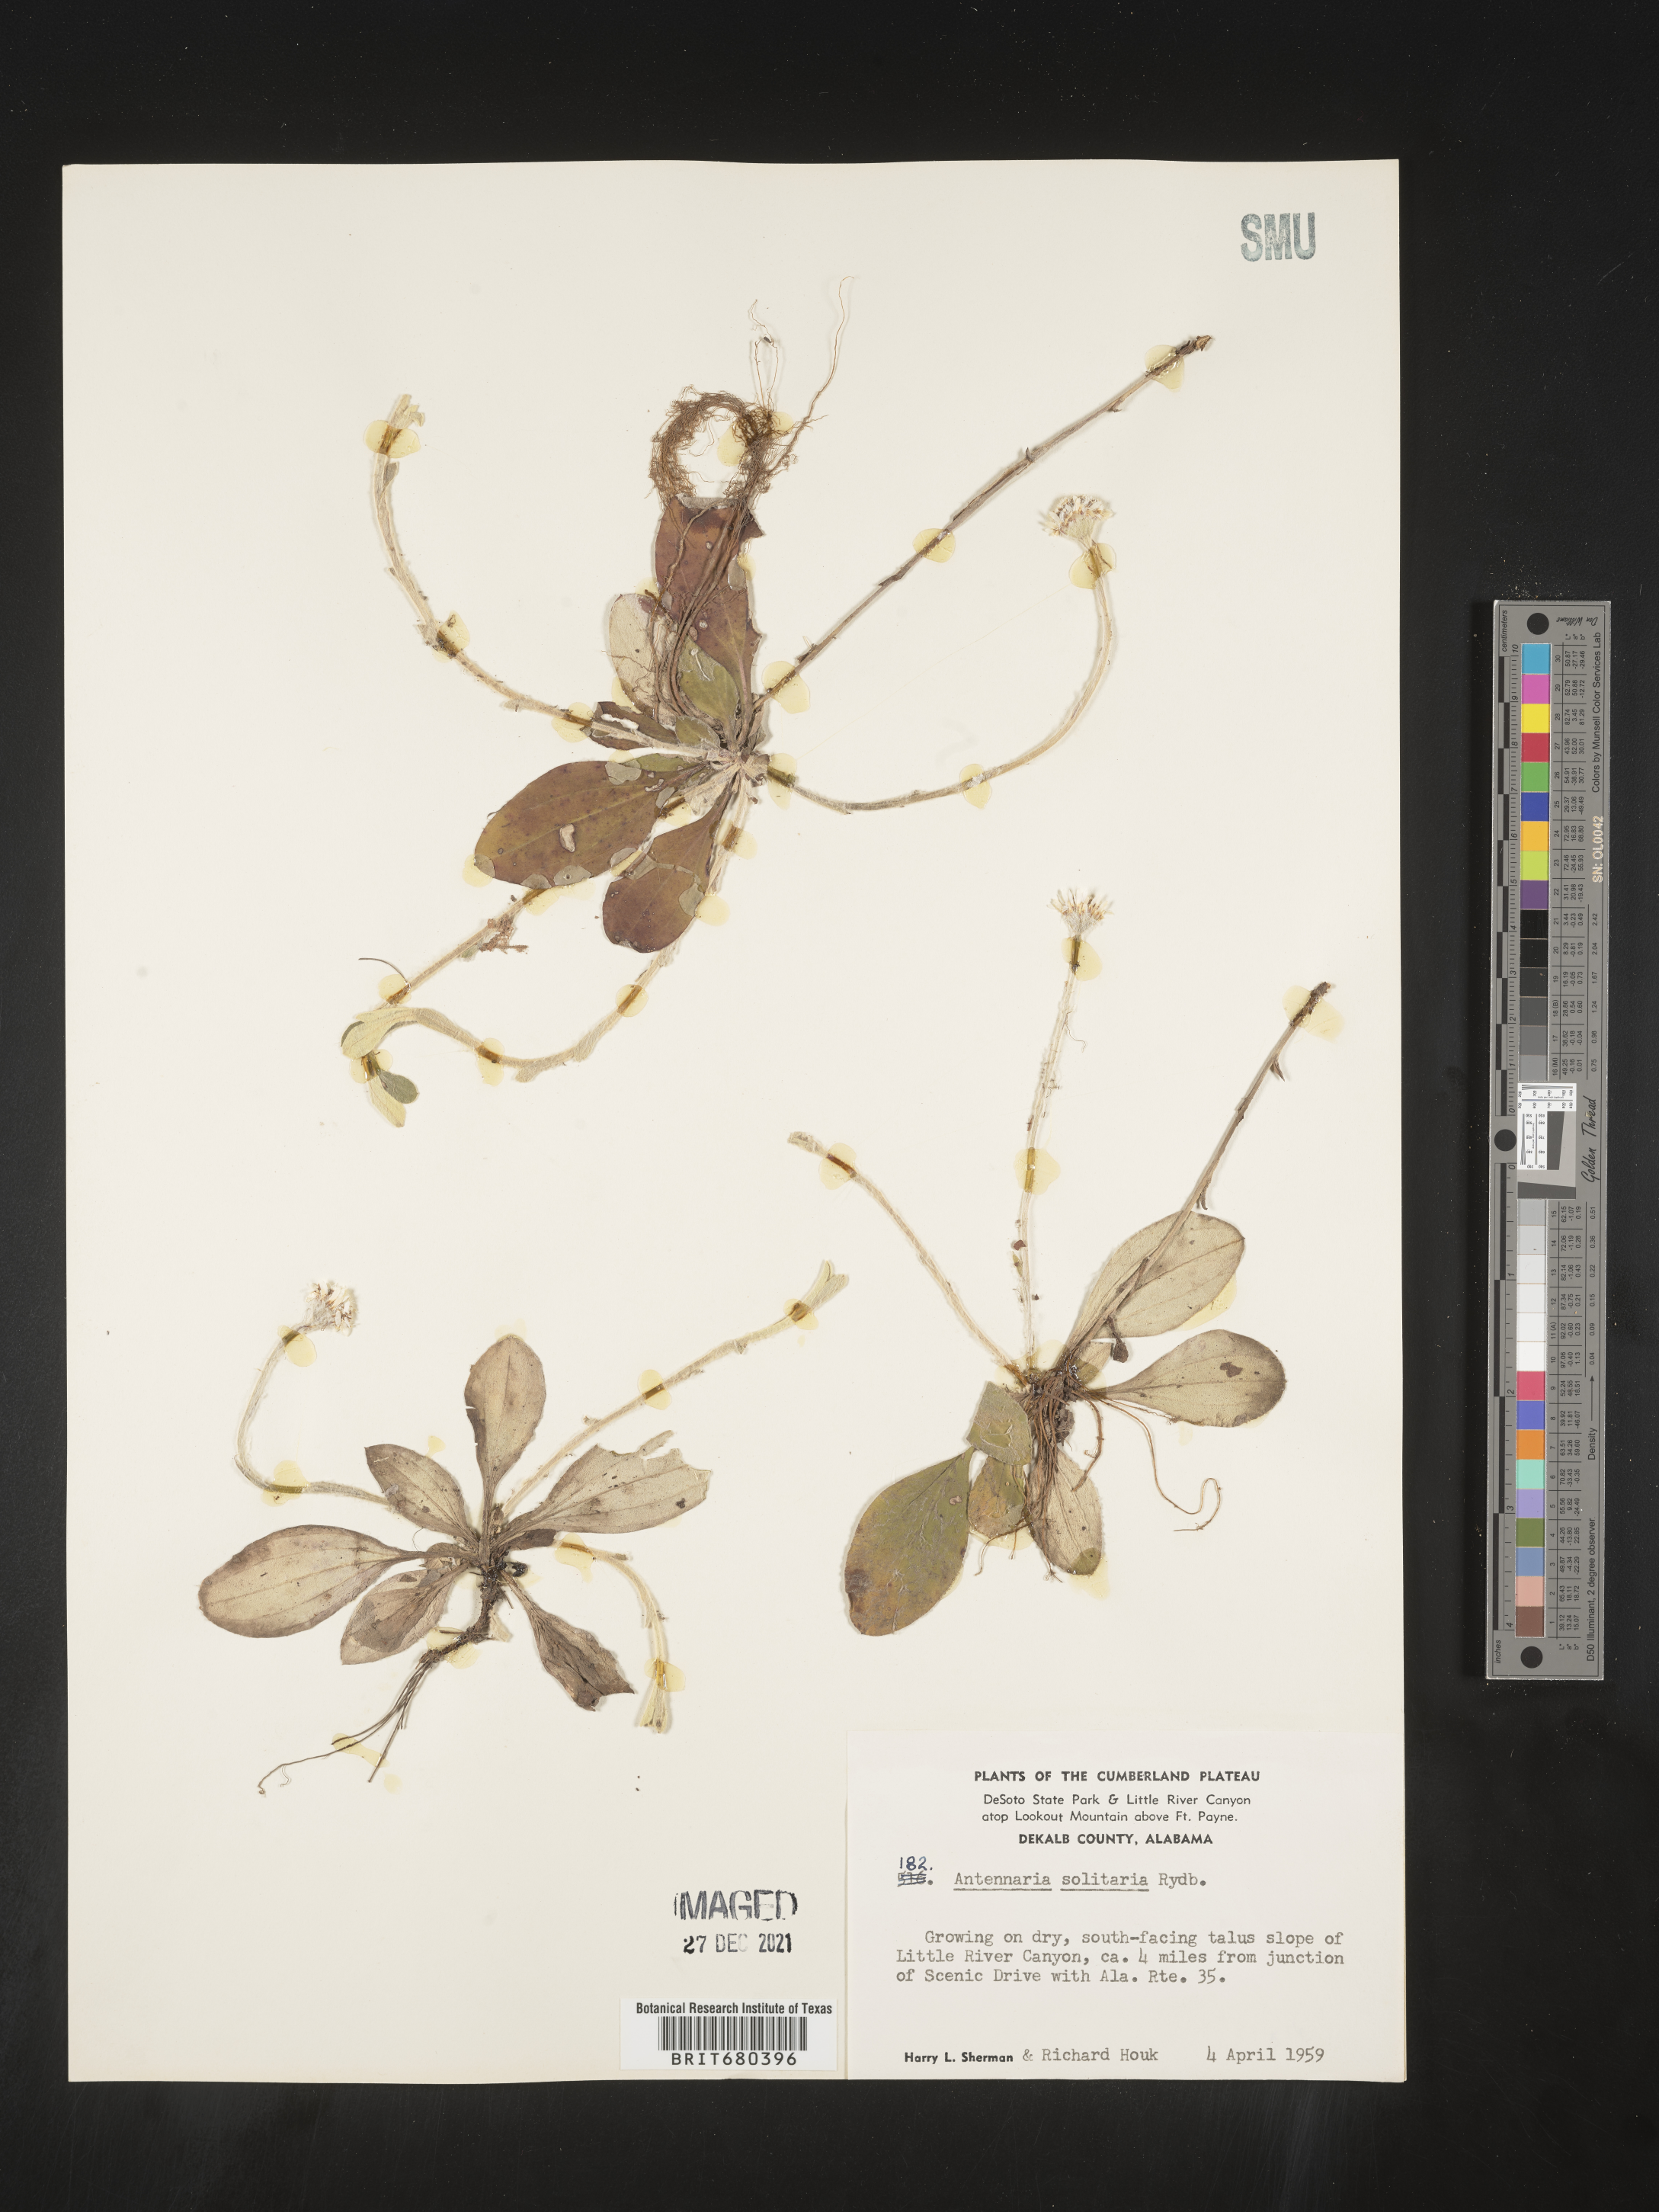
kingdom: Plantae
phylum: Tracheophyta
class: Magnoliopsida
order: Asterales
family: Asteraceae
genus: Antennaria
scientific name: Antennaria solitaria
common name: Single-head pussytoes
